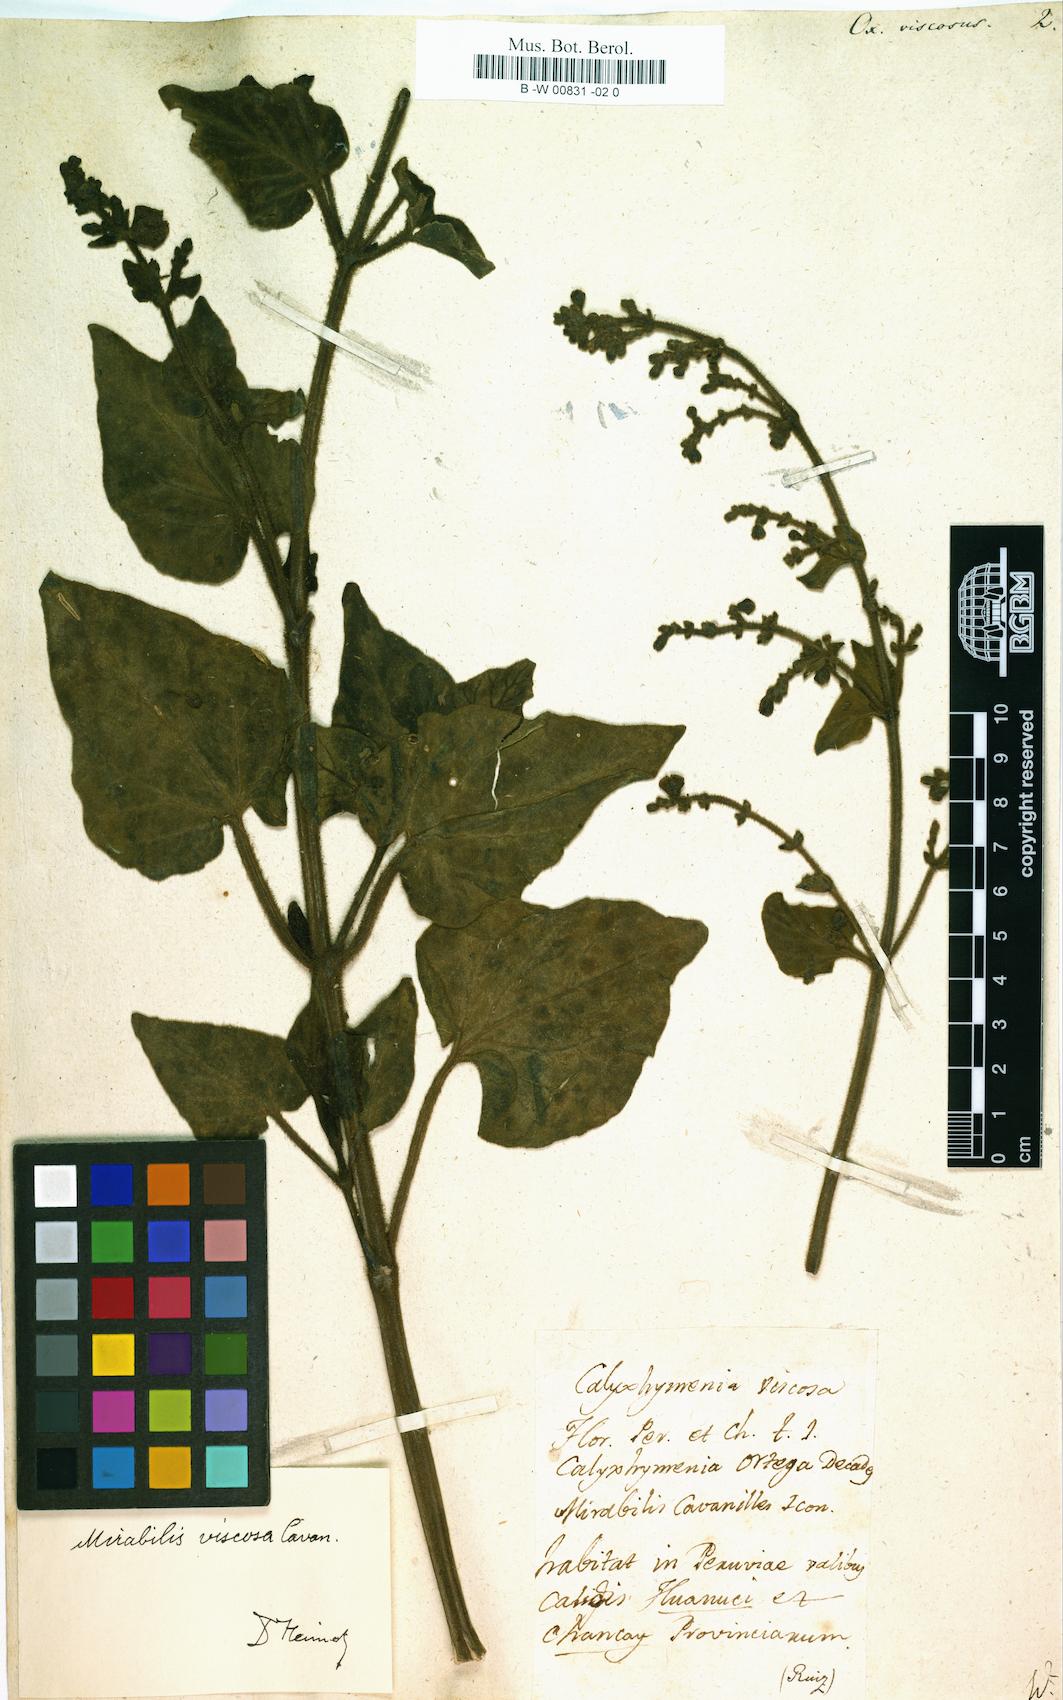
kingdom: Plantae
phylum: Tracheophyta
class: Magnoliopsida
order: Caryophyllales
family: Nyctaginaceae
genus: Mirabilis
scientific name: Mirabilis viscosa
